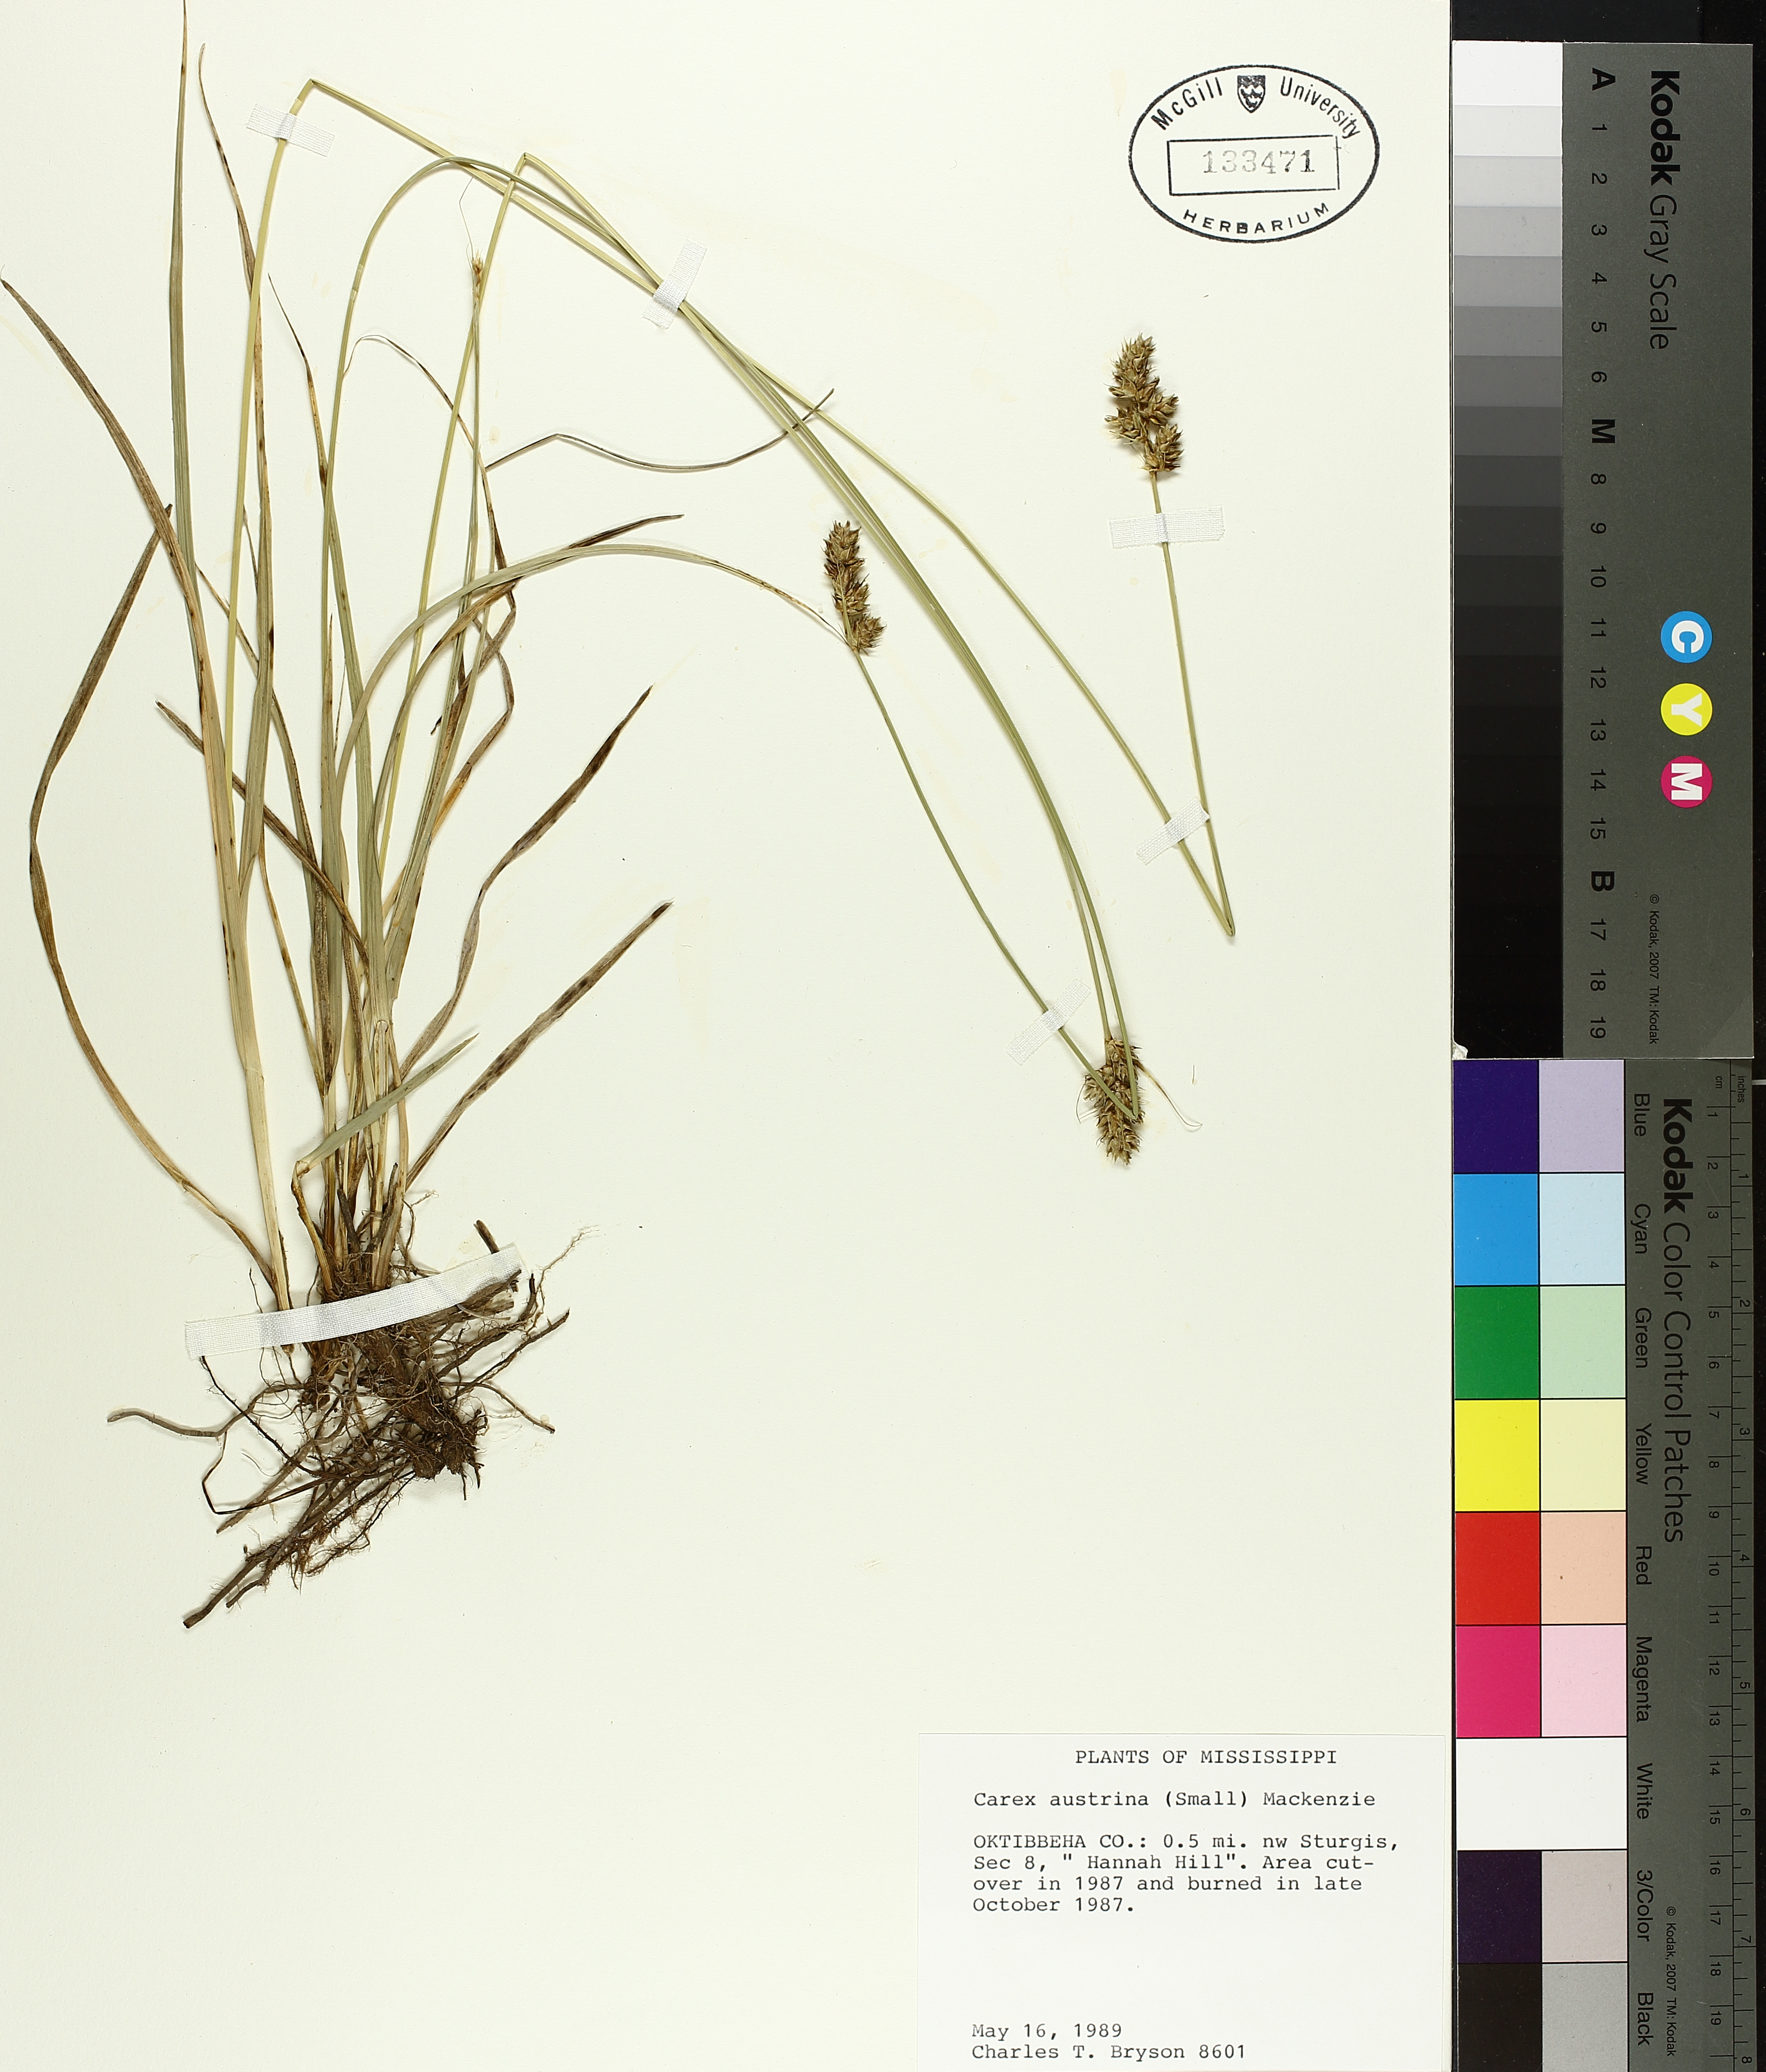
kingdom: Plantae
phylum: Tracheophyta
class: Liliopsida
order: Poales
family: Cyperaceae
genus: Carex
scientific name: Carex austrina
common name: Southern sedge
